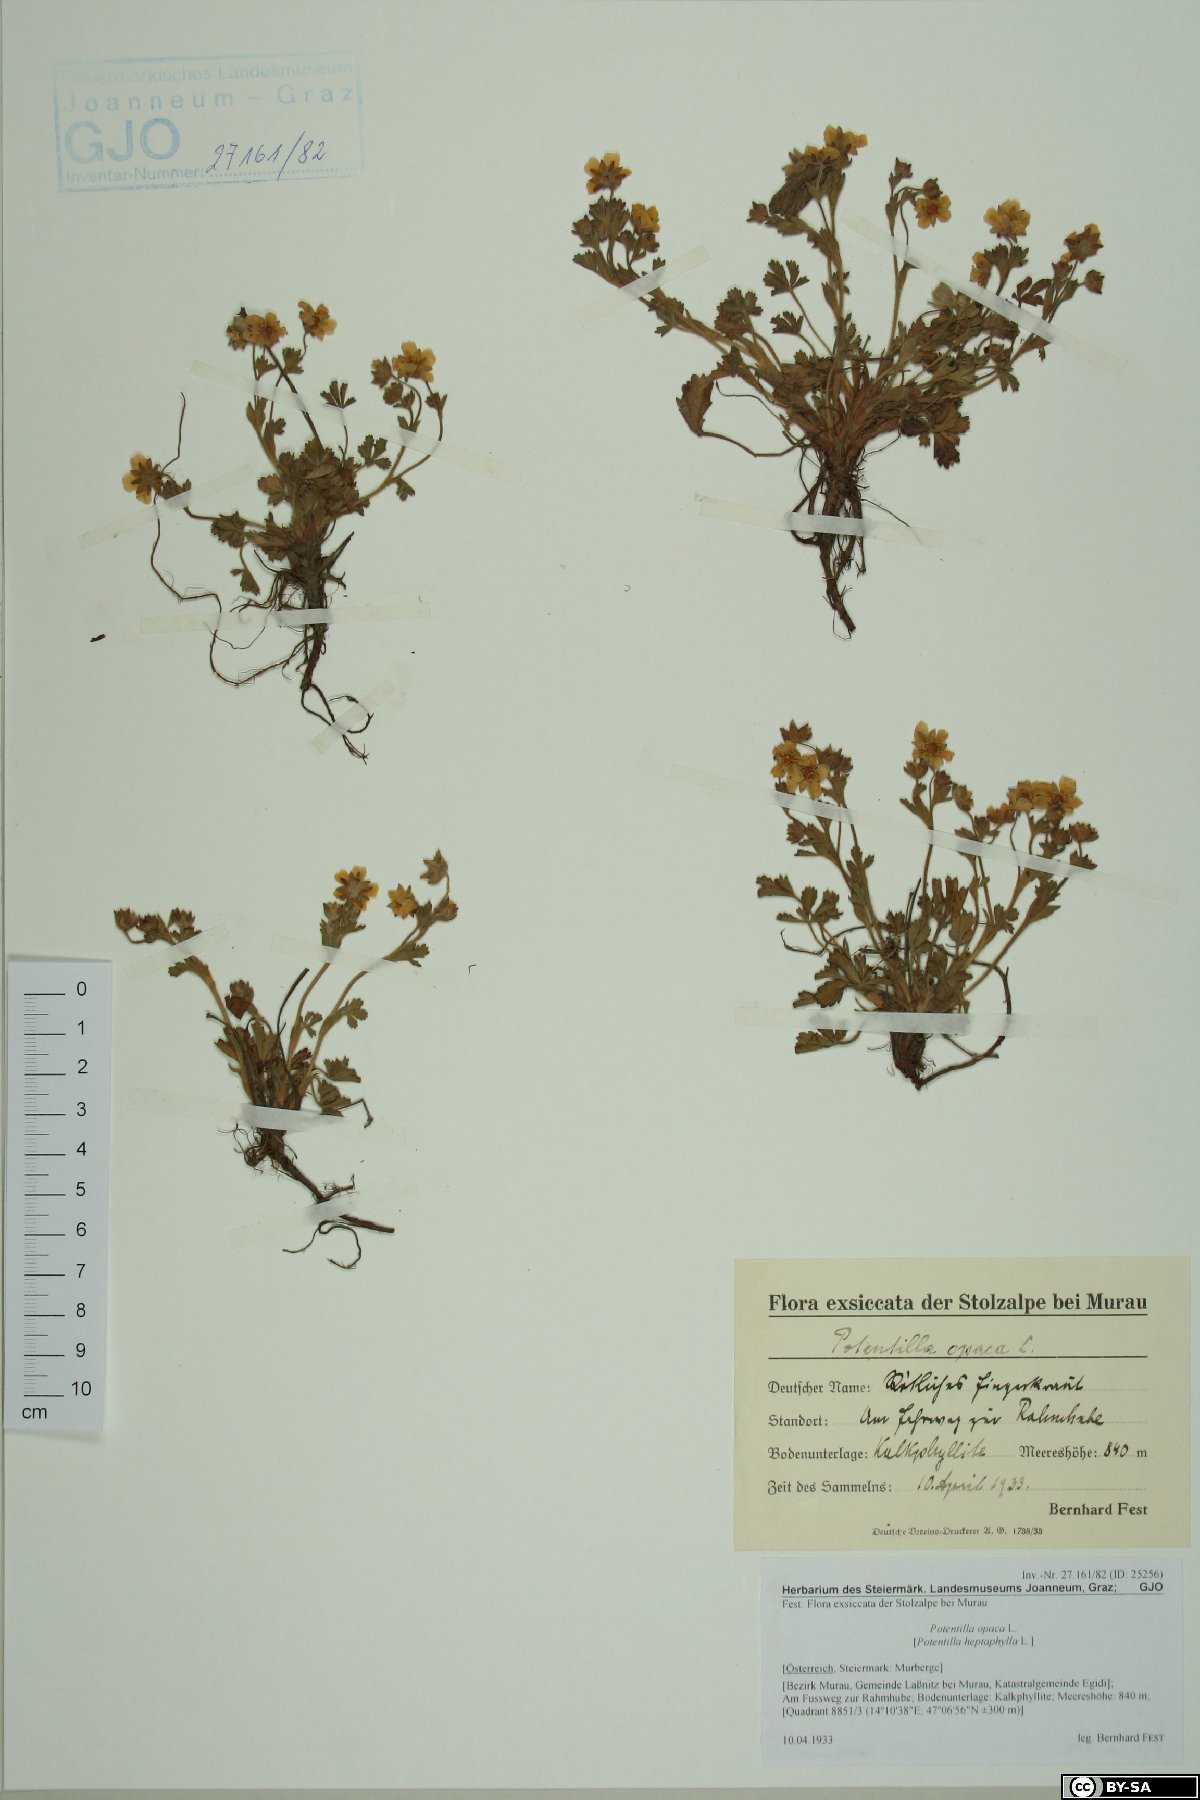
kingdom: Plantae
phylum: Tracheophyta
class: Magnoliopsida
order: Rosales
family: Rosaceae
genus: Potentilla
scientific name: Potentilla
